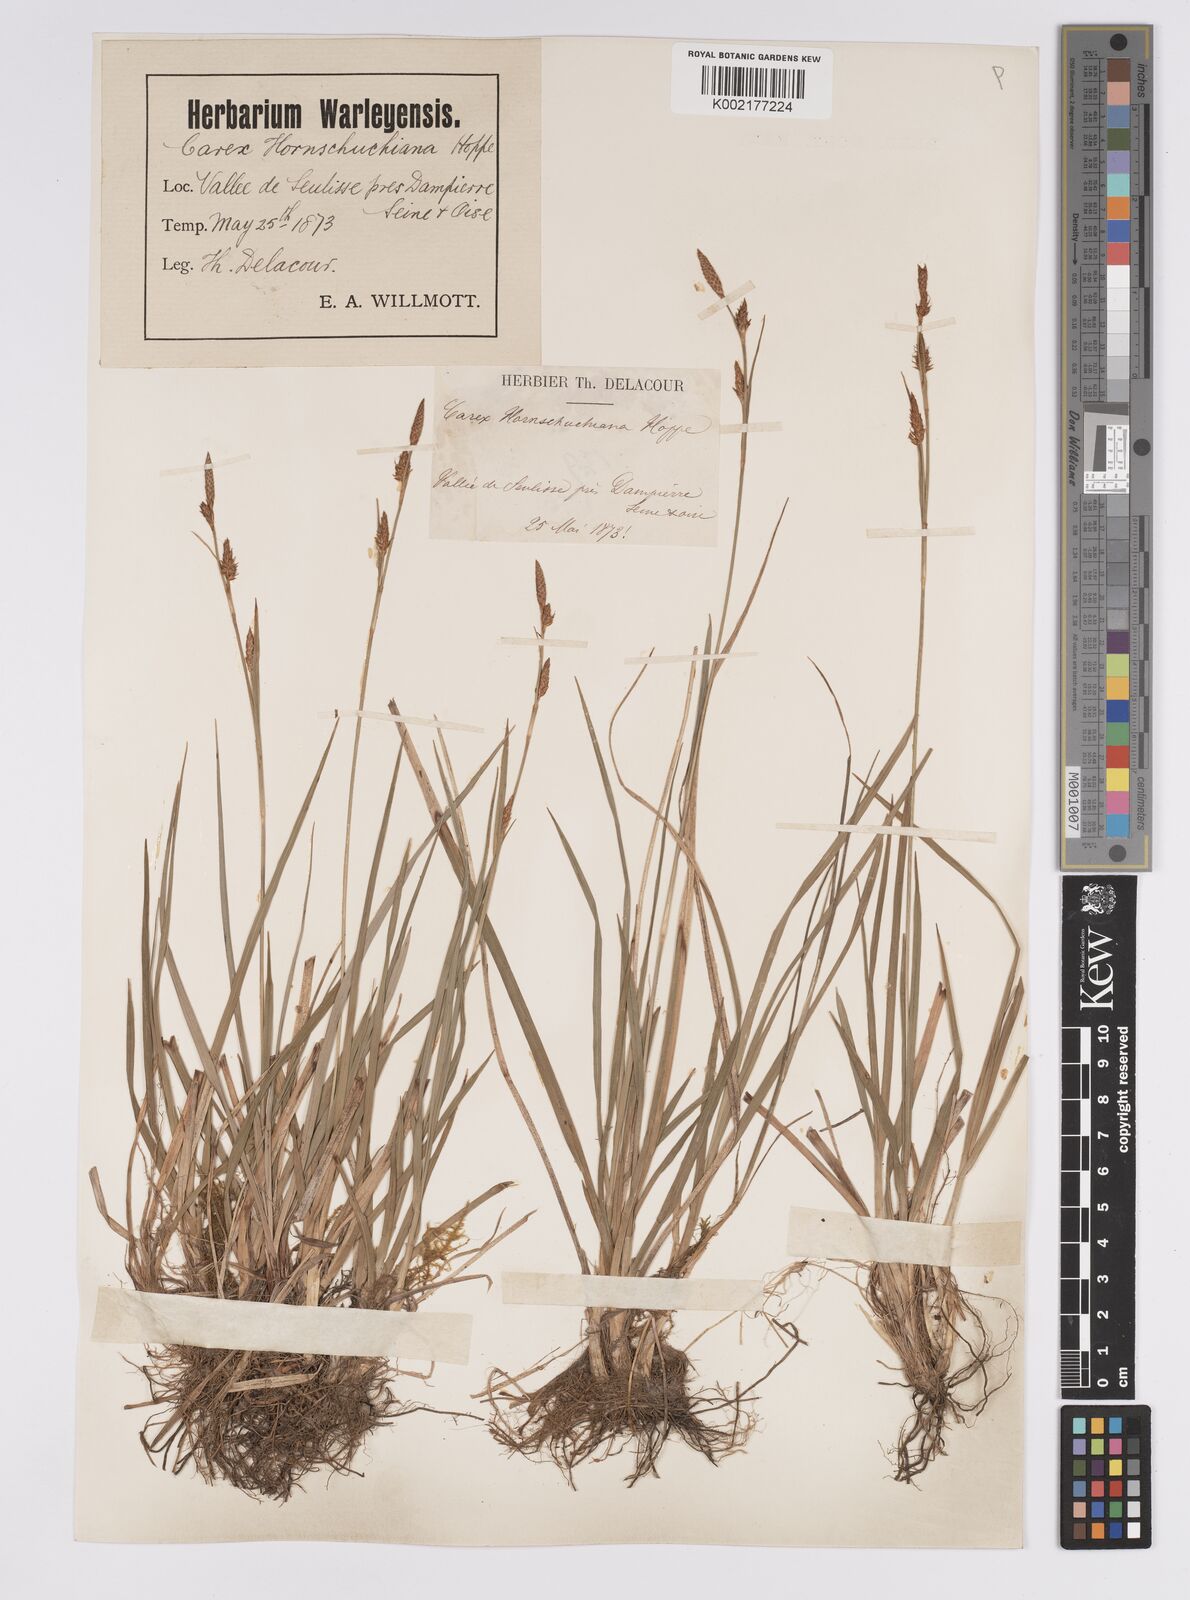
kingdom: Plantae
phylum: Tracheophyta
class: Liliopsida
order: Poales
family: Cyperaceae
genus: Carex
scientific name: Carex hostiana
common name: Tawny sedge
